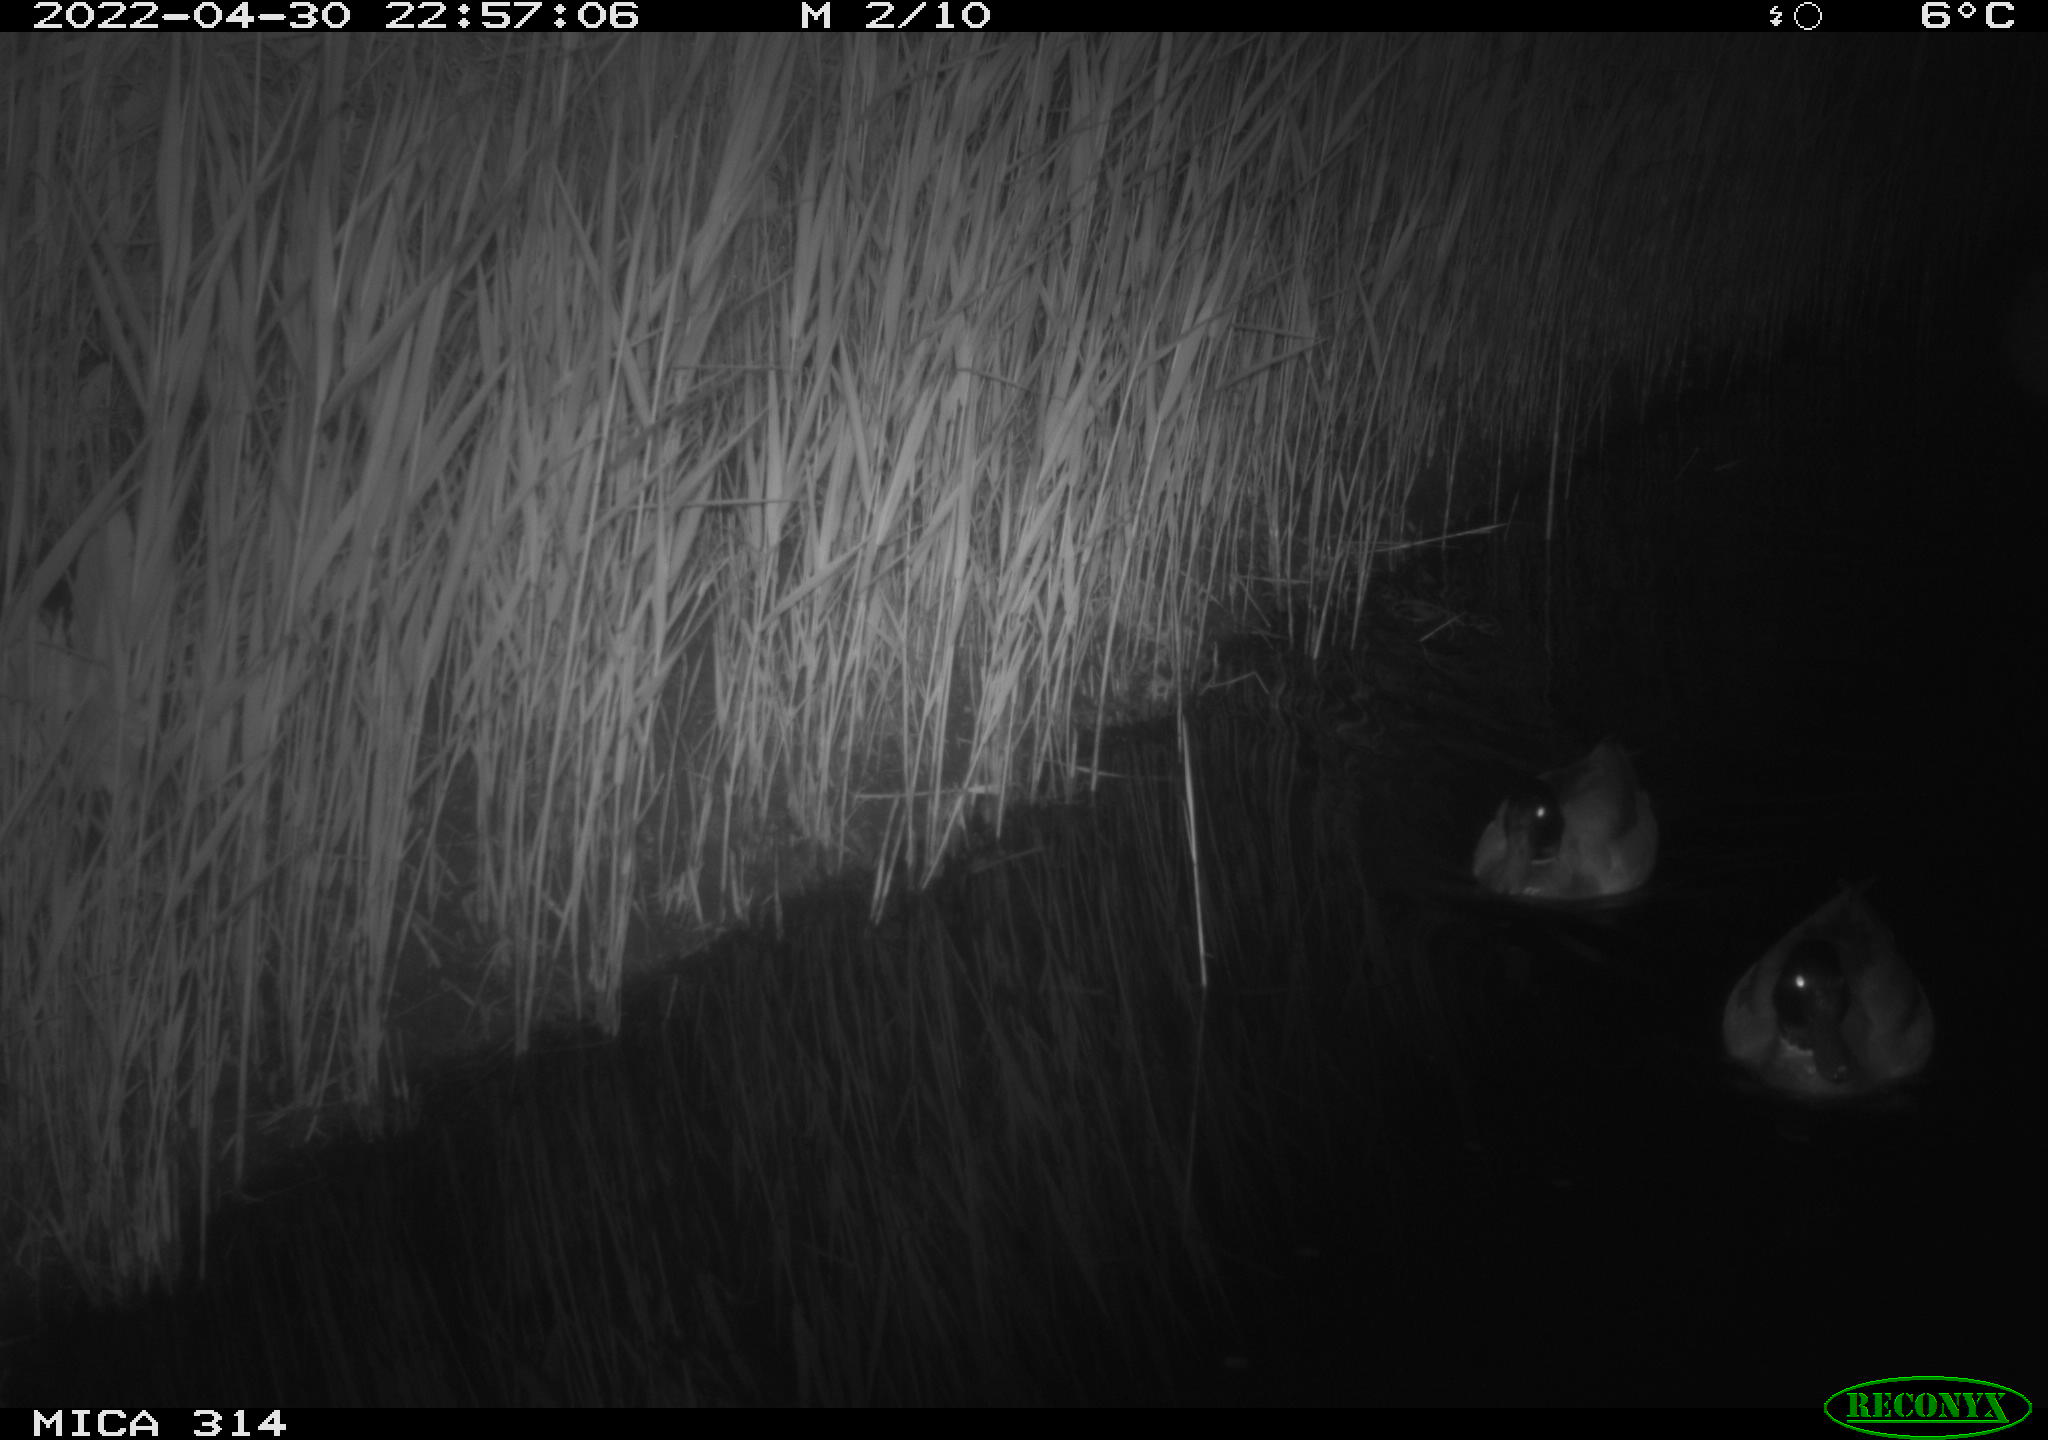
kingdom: Animalia
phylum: Chordata
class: Aves
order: Gruiformes
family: Rallidae
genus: Gallinula
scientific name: Gallinula chloropus
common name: Common moorhen
